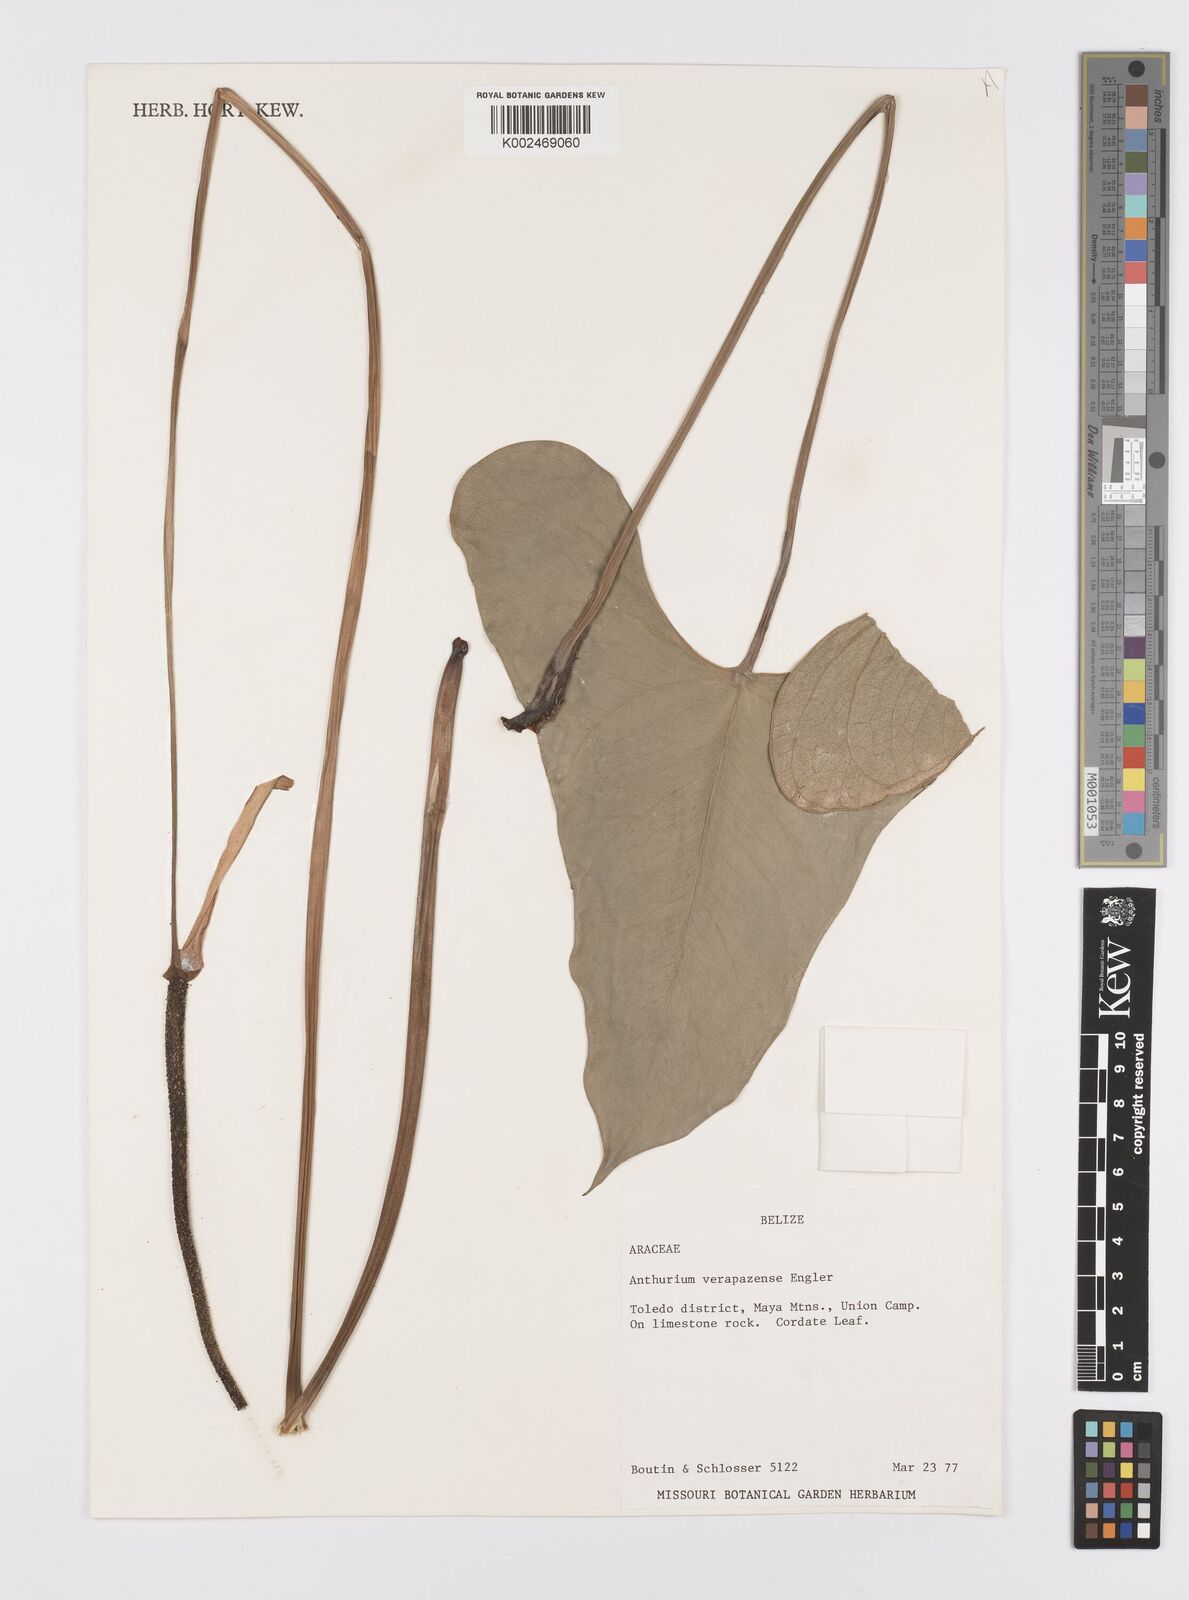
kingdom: Plantae
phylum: Tracheophyta
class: Liliopsida
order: Alismatales
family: Araceae
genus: Anthurium
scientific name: Anthurium verapazense
